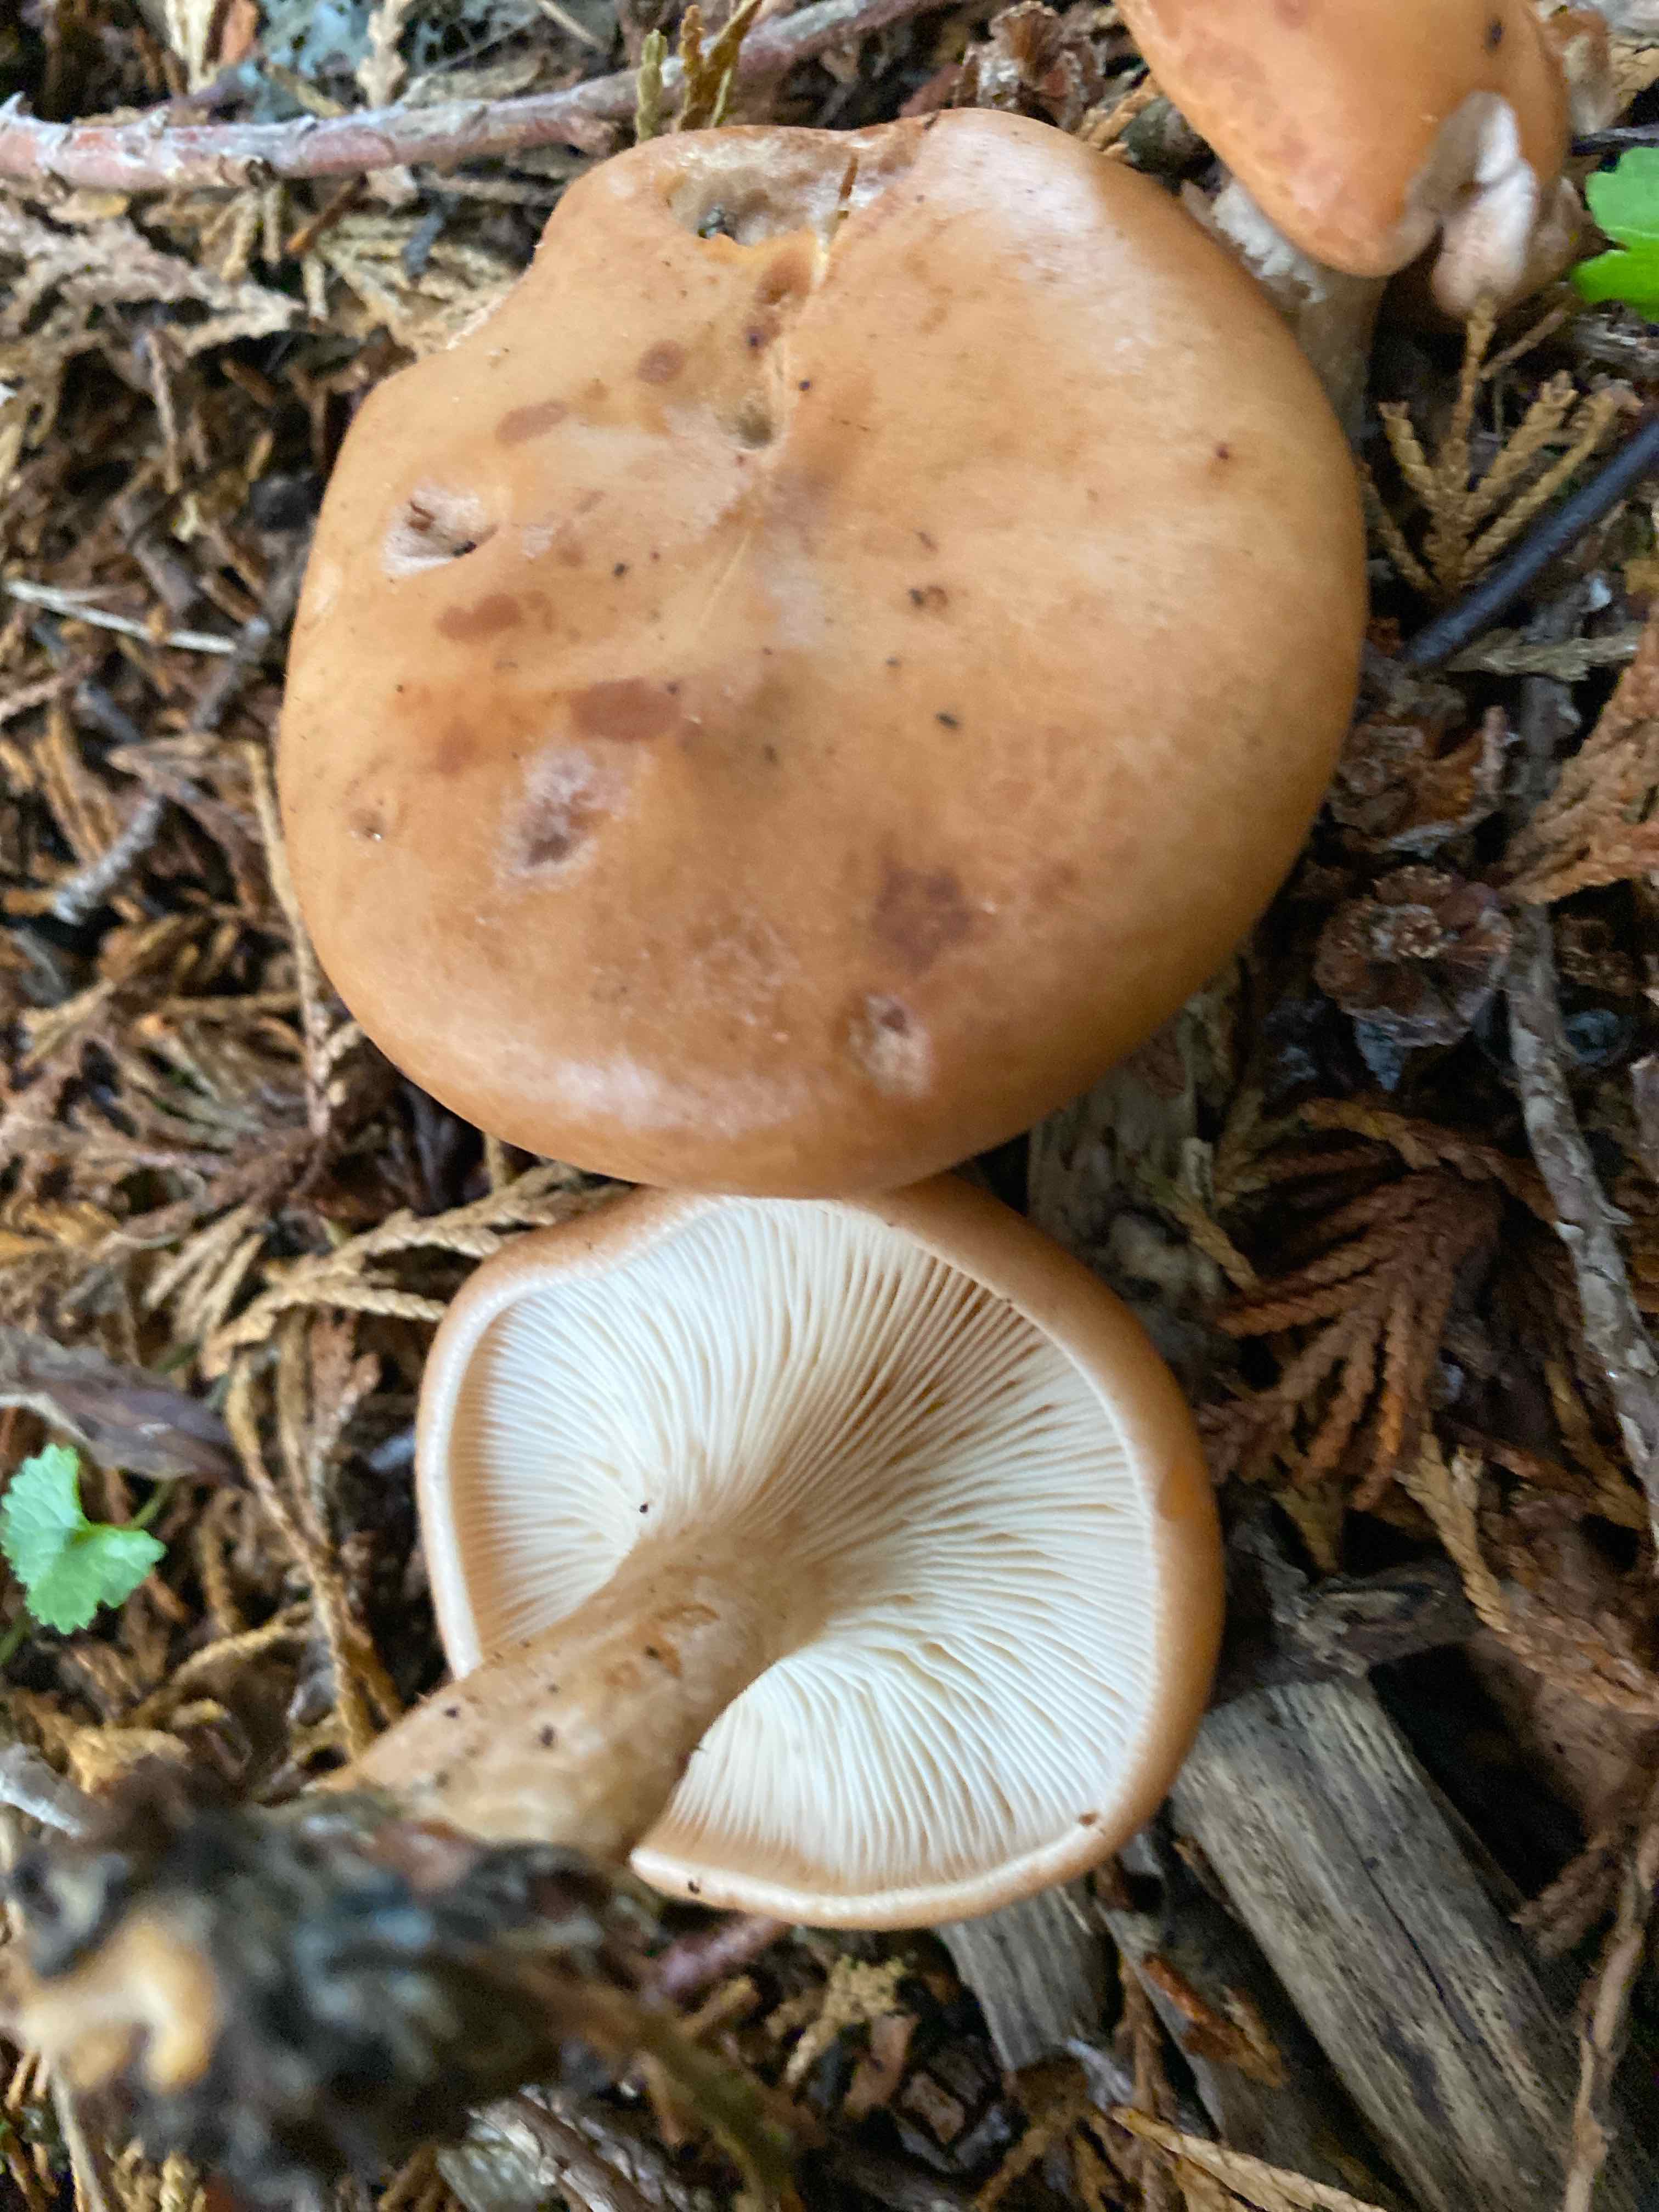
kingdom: Fungi
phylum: Basidiomycota
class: Agaricomycetes
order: Agaricales
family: Tricholomataceae
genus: Paralepista
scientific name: Paralepista flaccida
